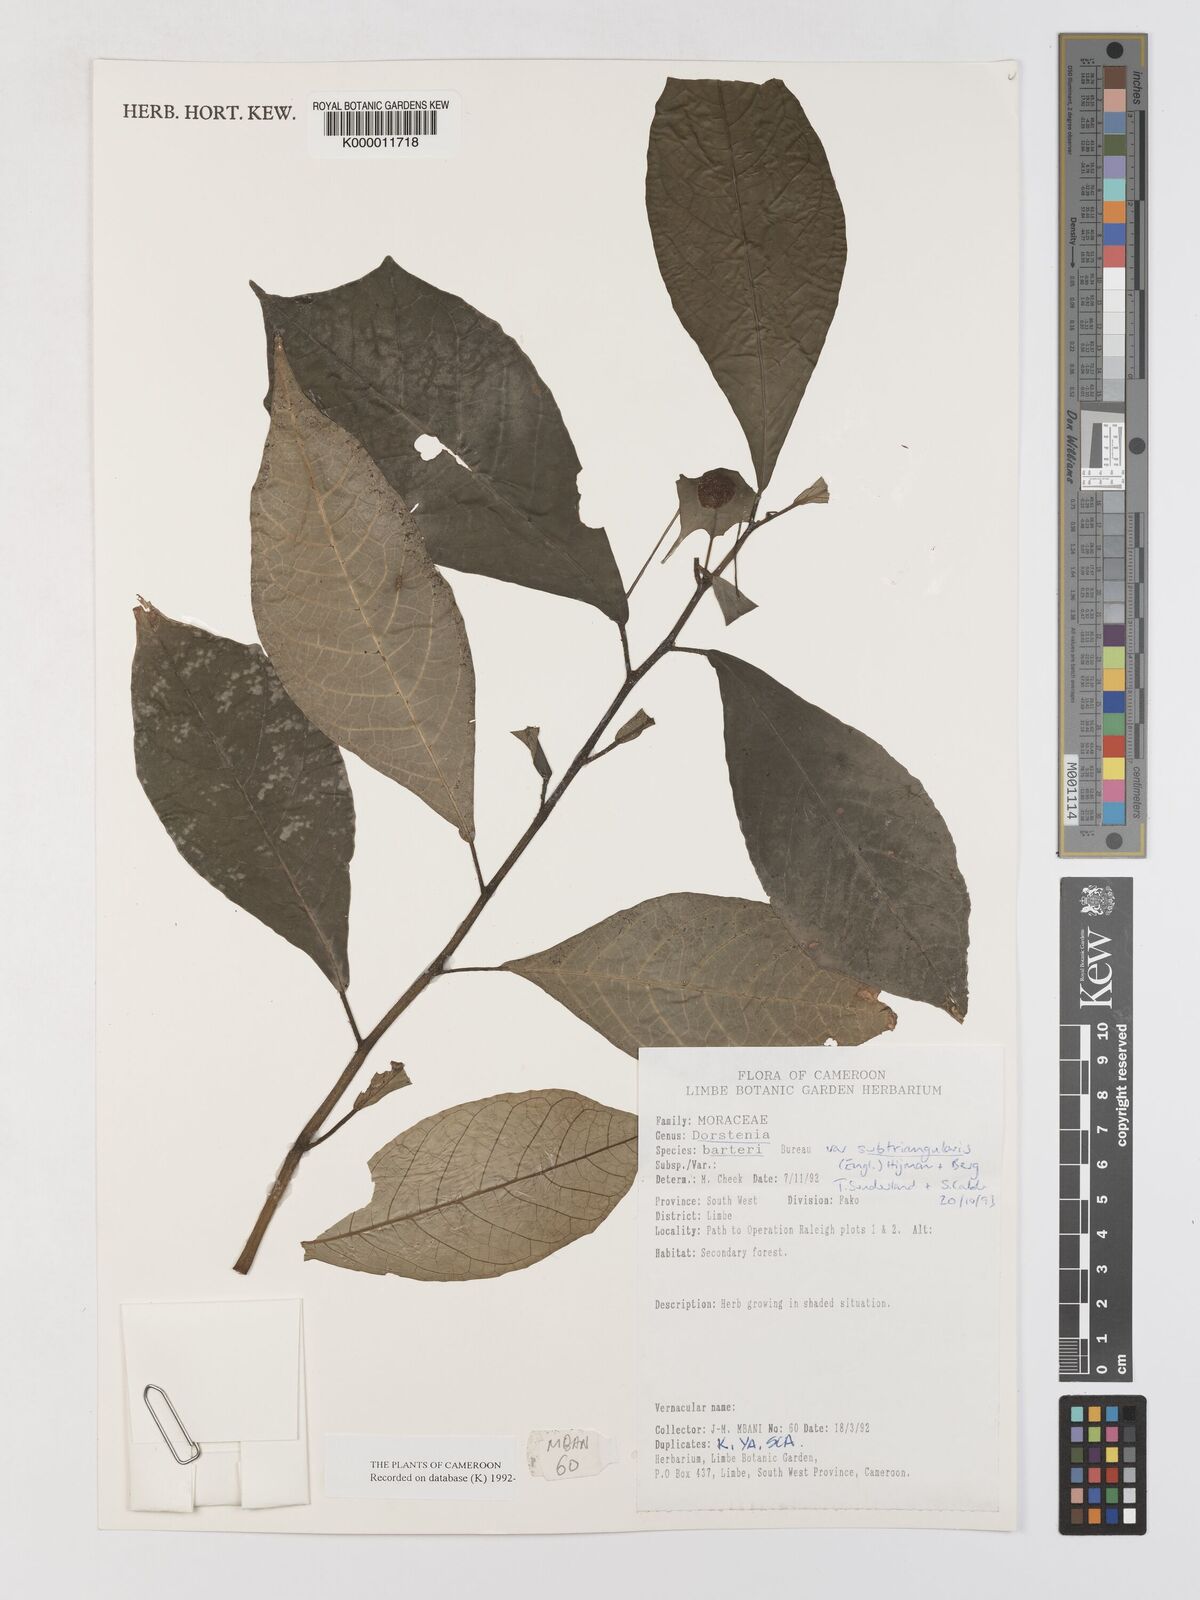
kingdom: Plantae
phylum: Tracheophyta
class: Magnoliopsida
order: Rosales
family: Moraceae
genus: Dorstenia
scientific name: Dorstenia barteri
